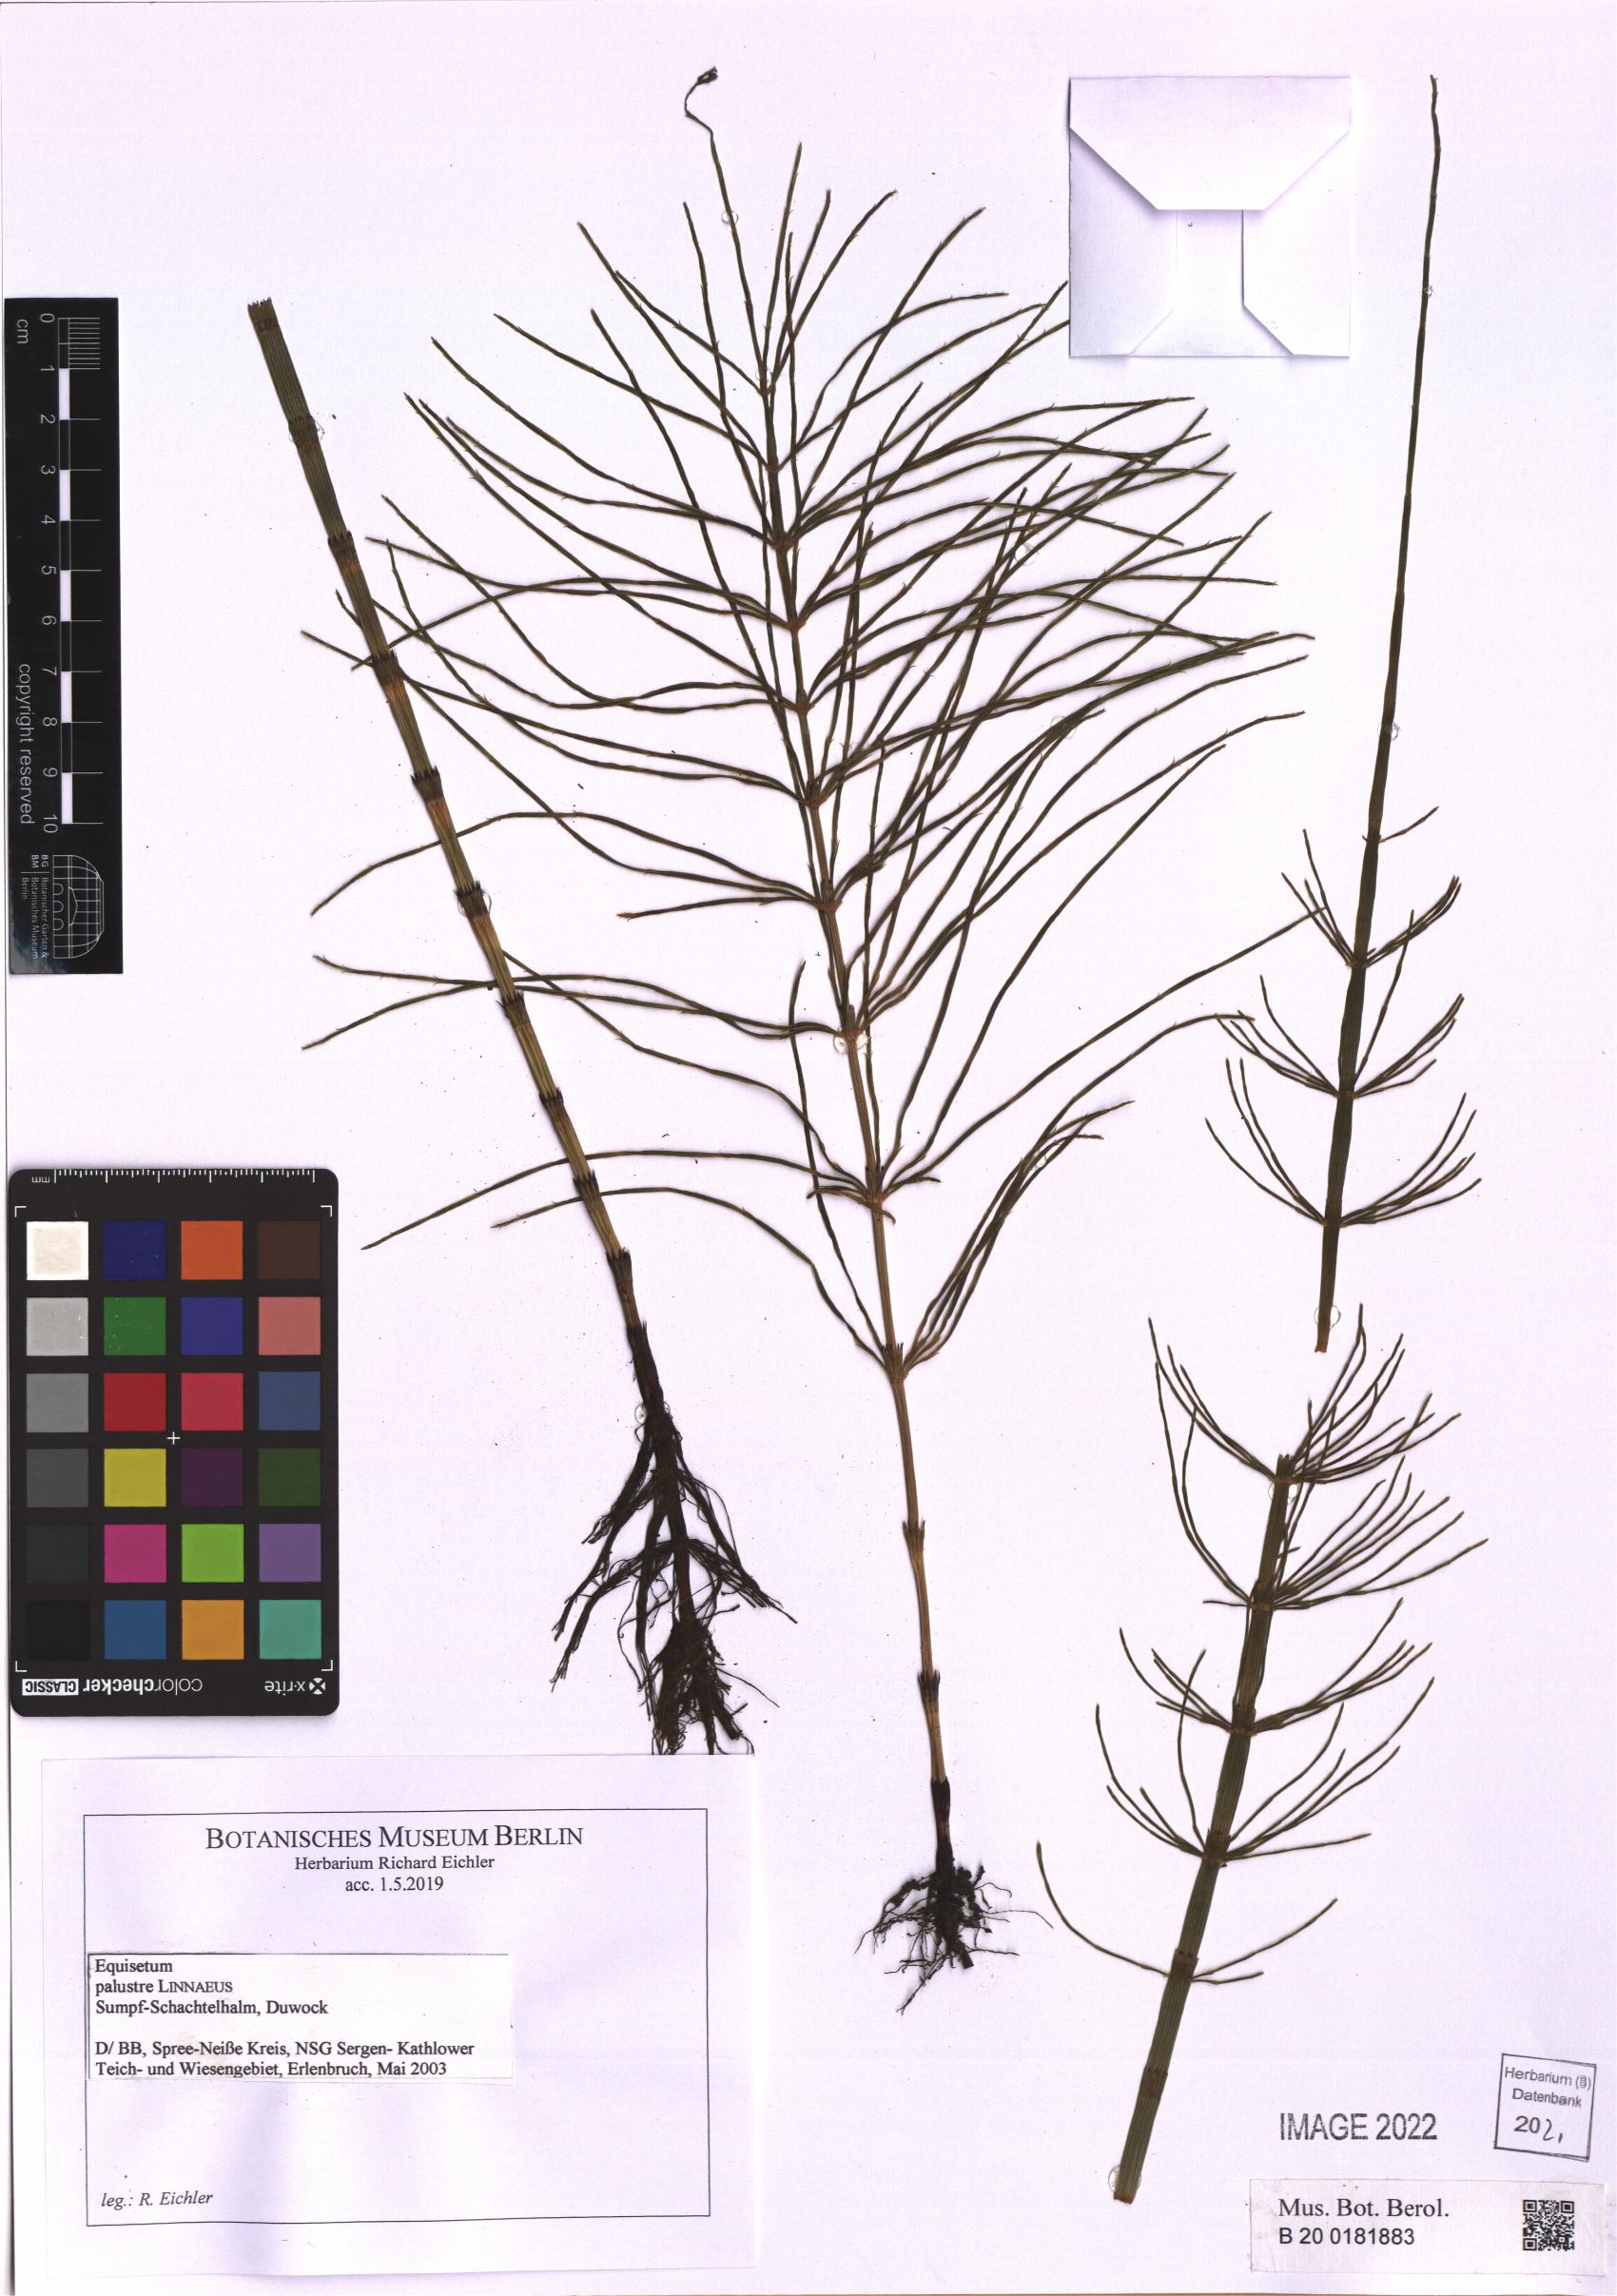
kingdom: Plantae
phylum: Tracheophyta
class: Polypodiopsida
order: Equisetales
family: Equisetaceae
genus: Equisetum
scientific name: Equisetum palustre
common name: Marsh horsetail
